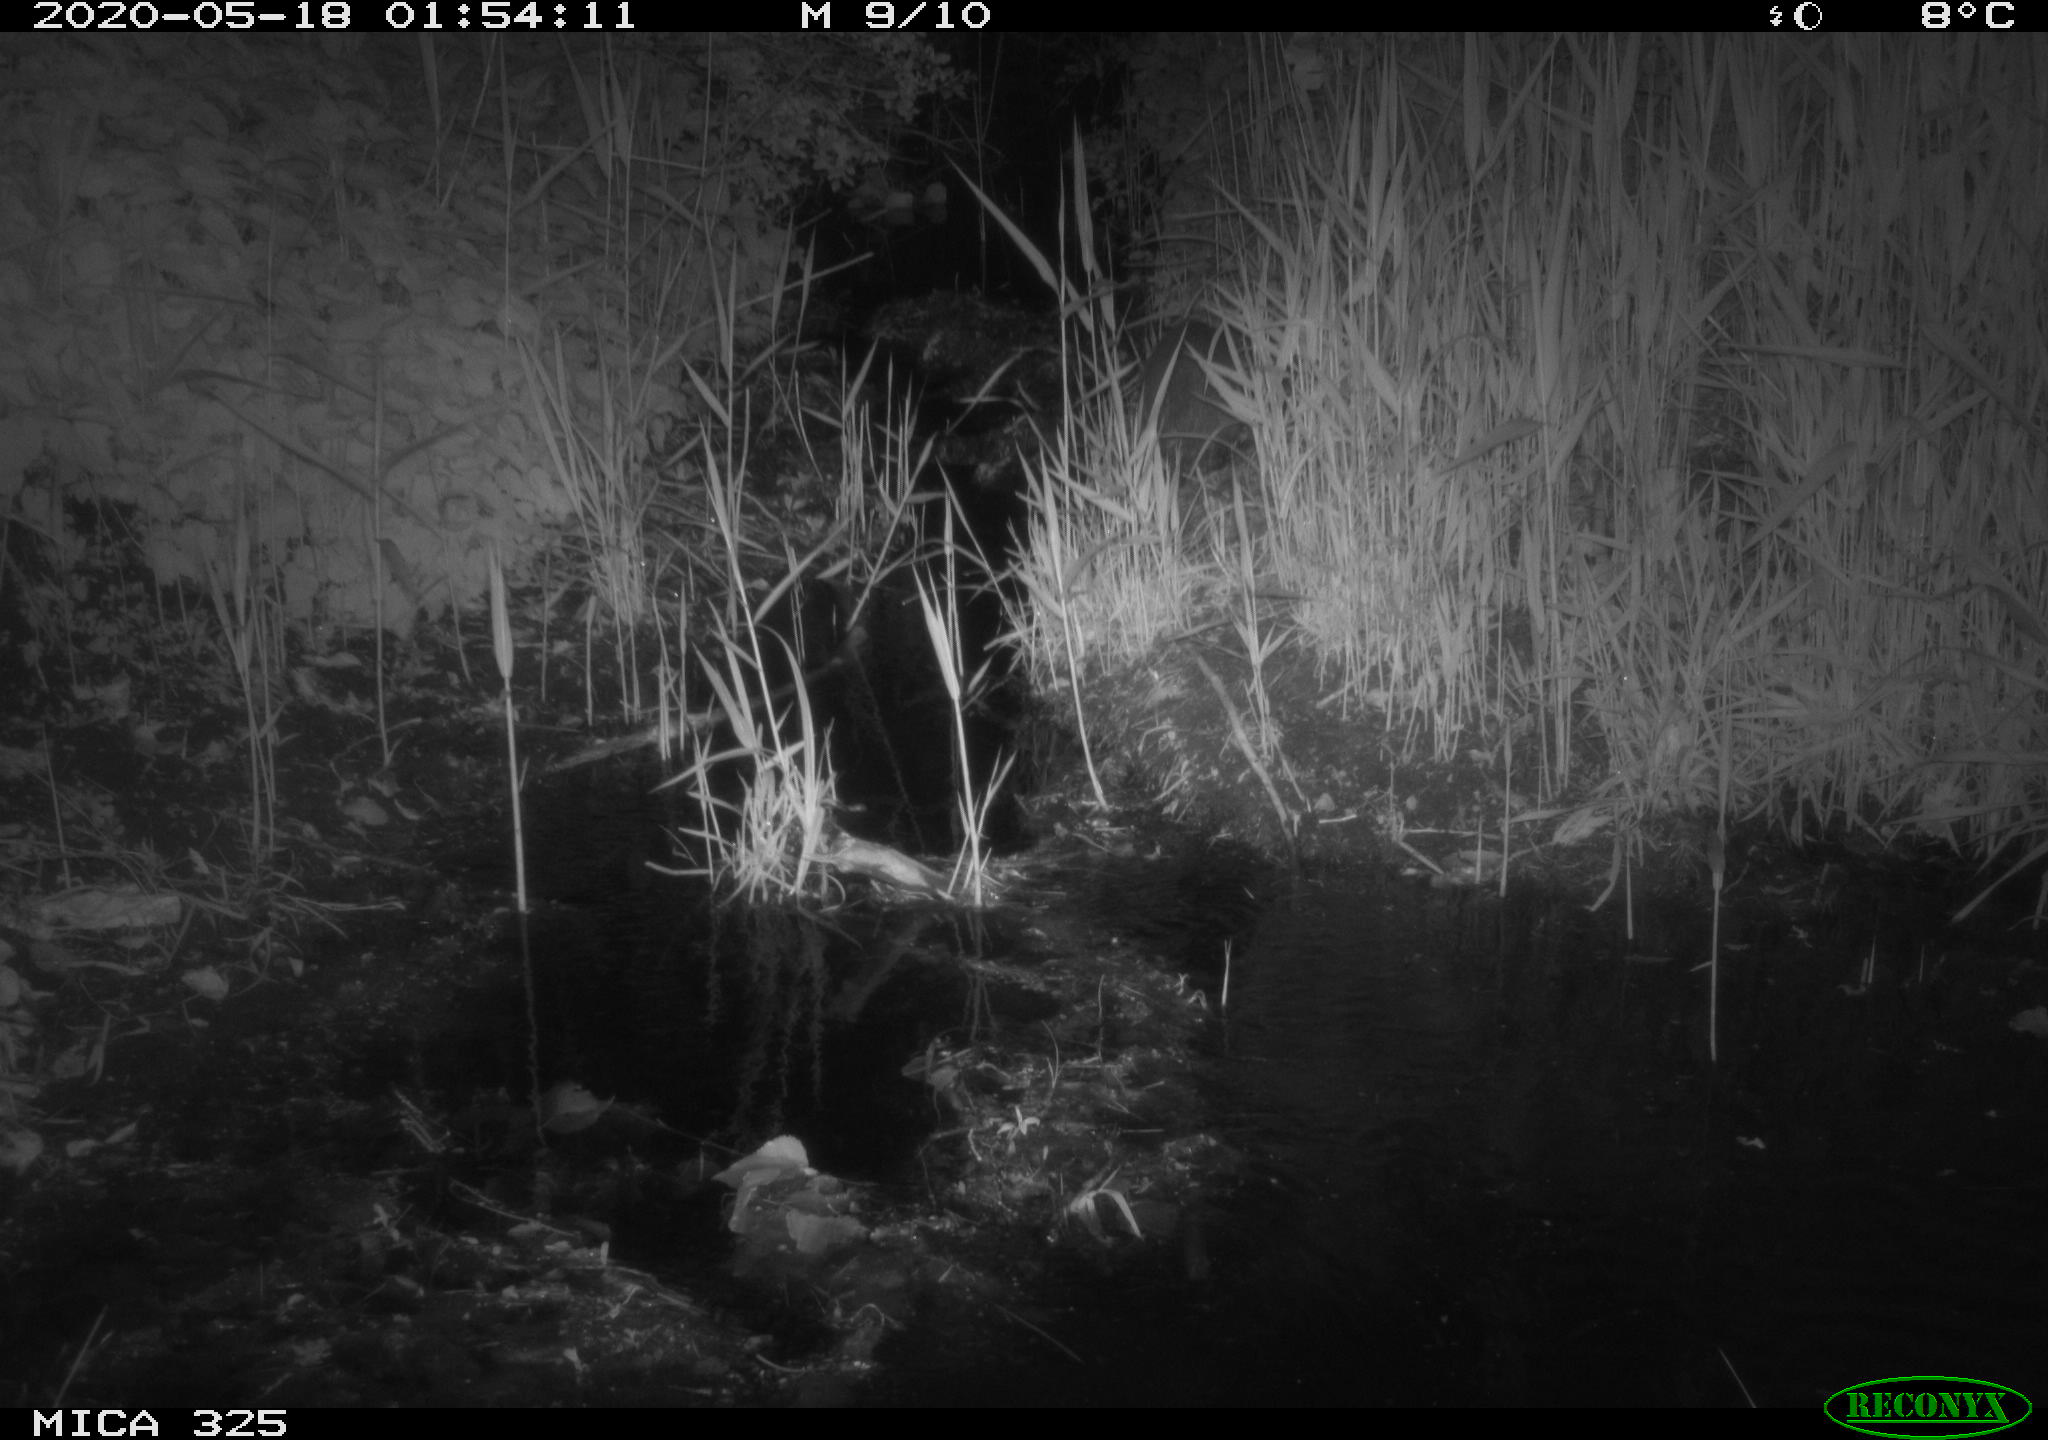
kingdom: Animalia
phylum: Chordata
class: Mammalia
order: Rodentia
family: Myocastoridae
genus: Myocastor
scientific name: Myocastor coypus
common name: Coypu
